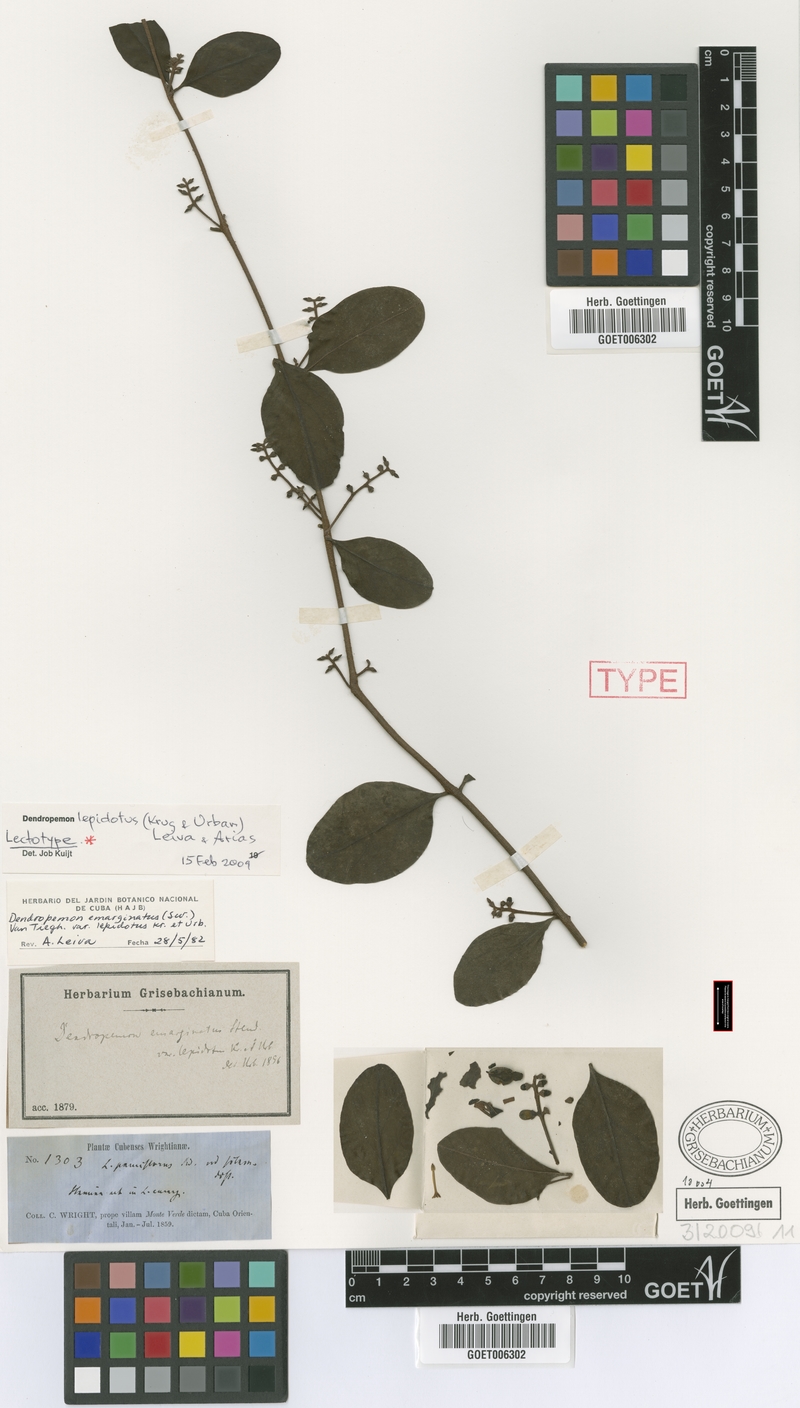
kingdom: Plantae
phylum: Tracheophyta
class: Magnoliopsida
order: Santalales
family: Loranthaceae
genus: Dendropemon
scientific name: Dendropemon lepidotus
